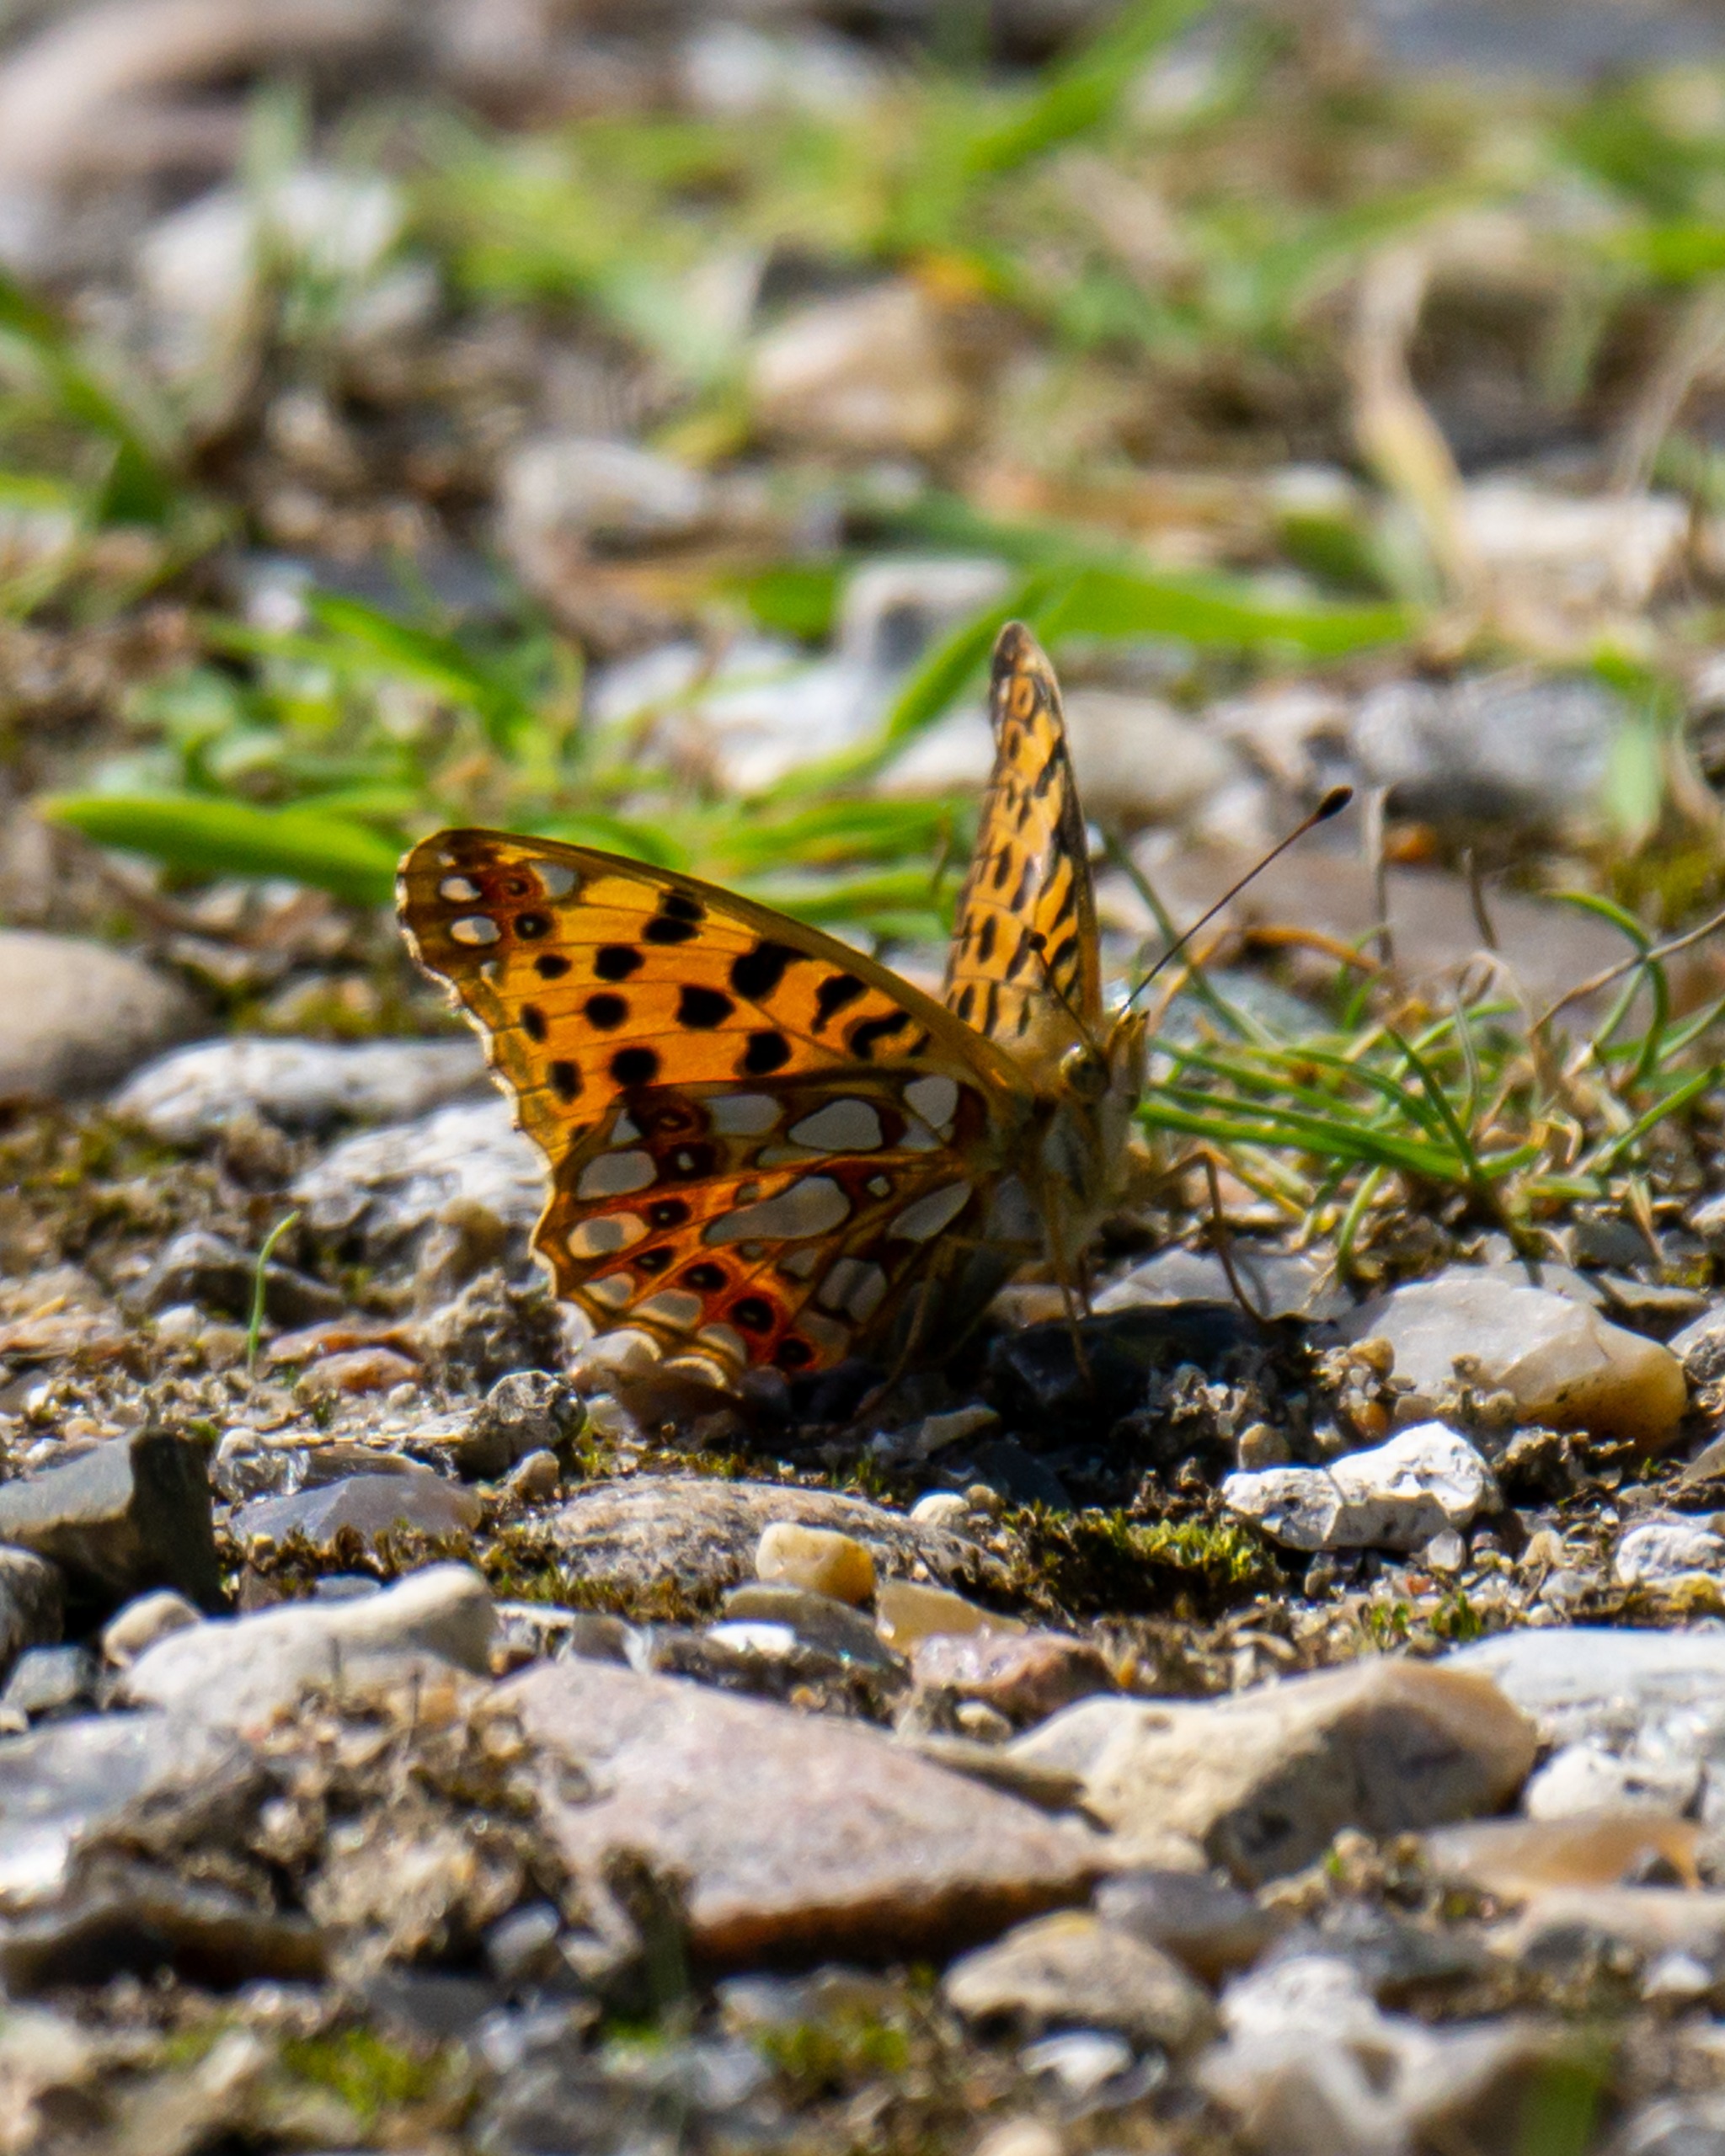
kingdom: Animalia
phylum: Arthropoda
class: Insecta
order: Lepidoptera
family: Nymphalidae
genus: Issoria
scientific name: Issoria lathonia
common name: Storplettet perlemorsommerfugl
